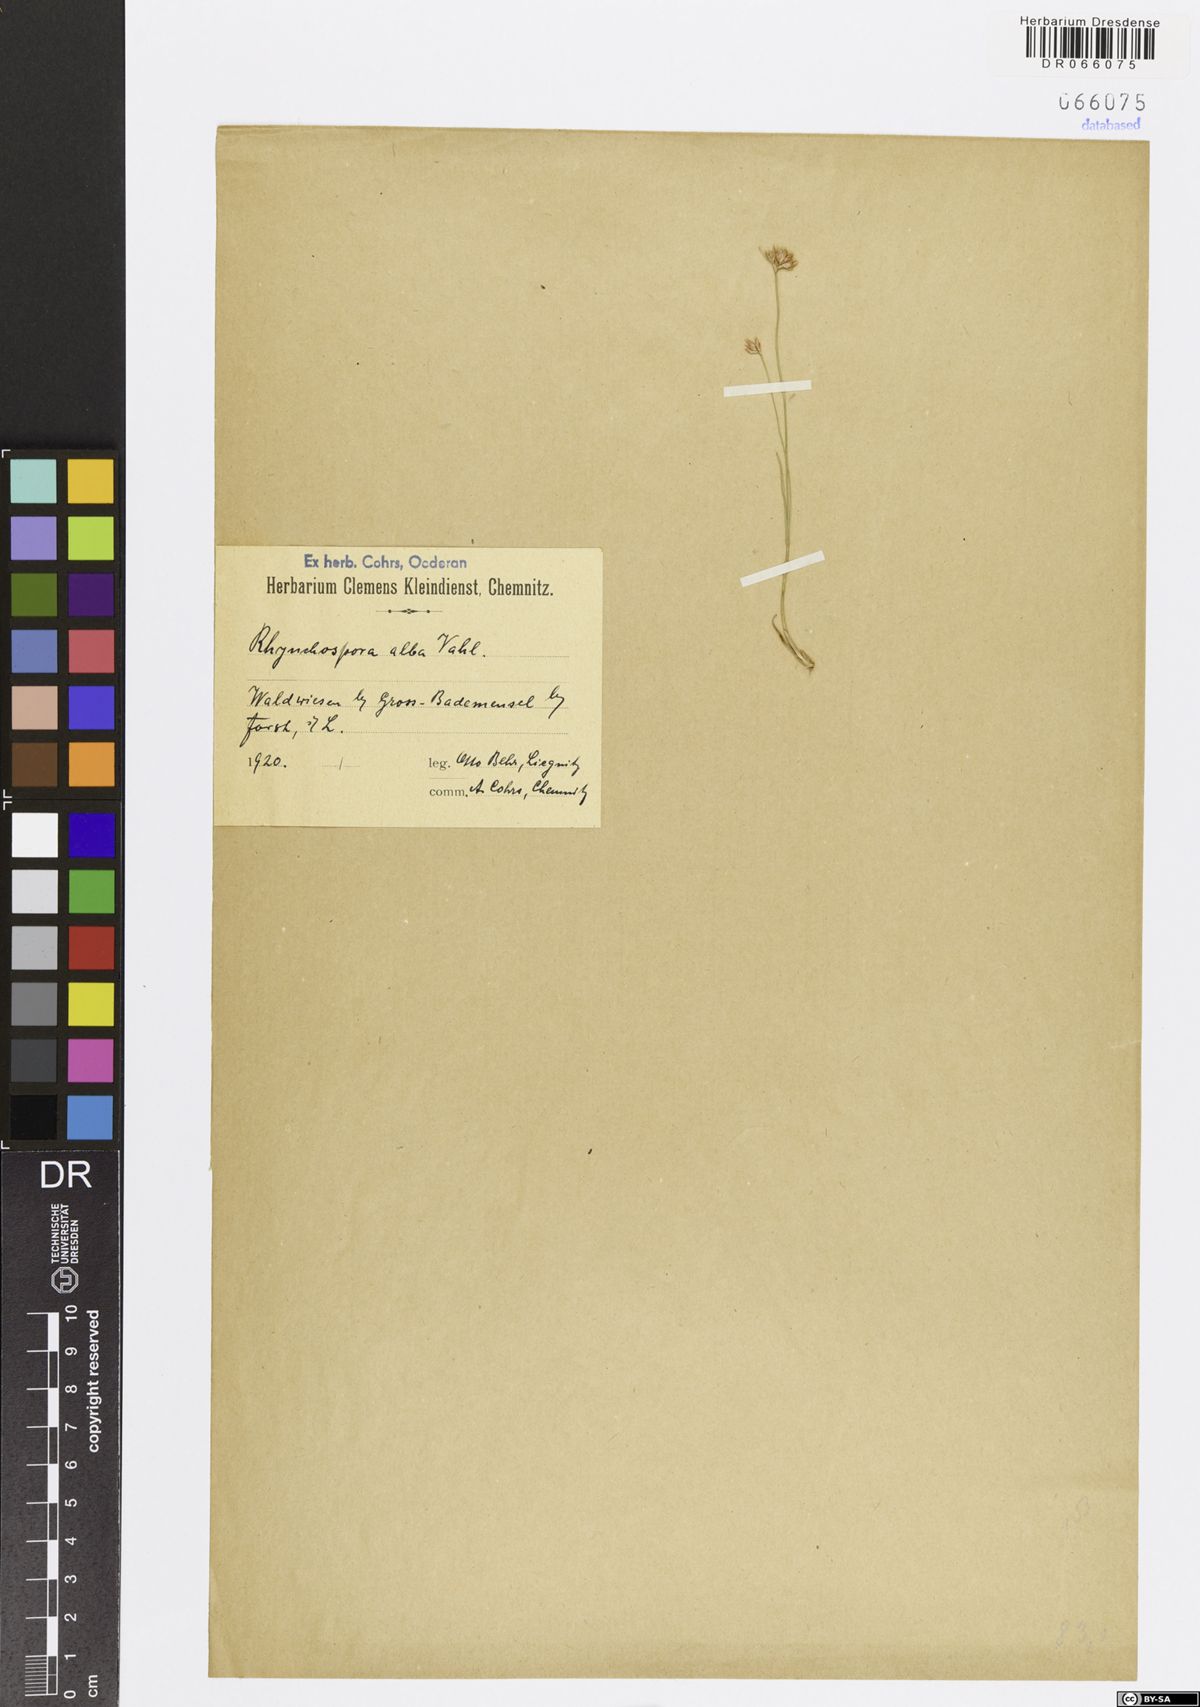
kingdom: Plantae
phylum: Tracheophyta
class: Liliopsida
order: Poales
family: Cyperaceae
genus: Rhynchospora
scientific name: Rhynchospora alba
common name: White beak-sedge
